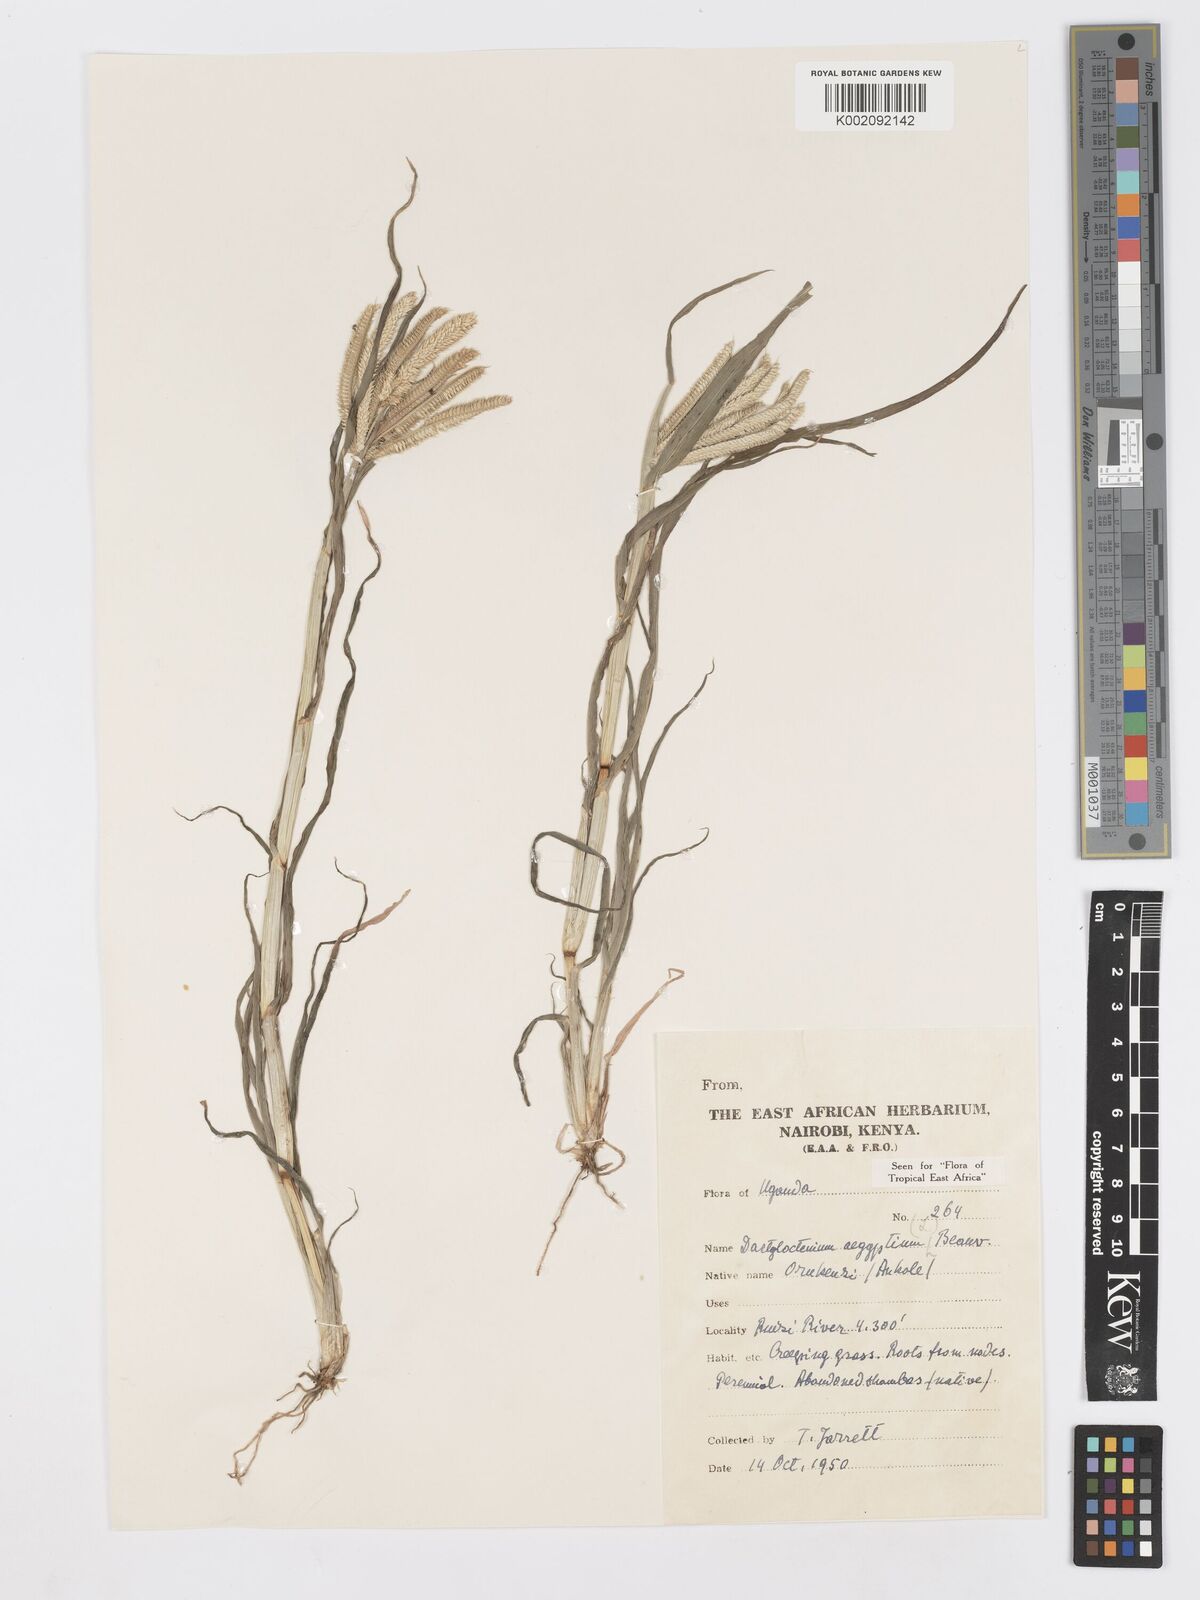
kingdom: Plantae
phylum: Tracheophyta
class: Liliopsida
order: Poales
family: Poaceae
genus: Dactyloctenium
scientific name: Dactyloctenium aegyptium
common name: Egyptian grass
